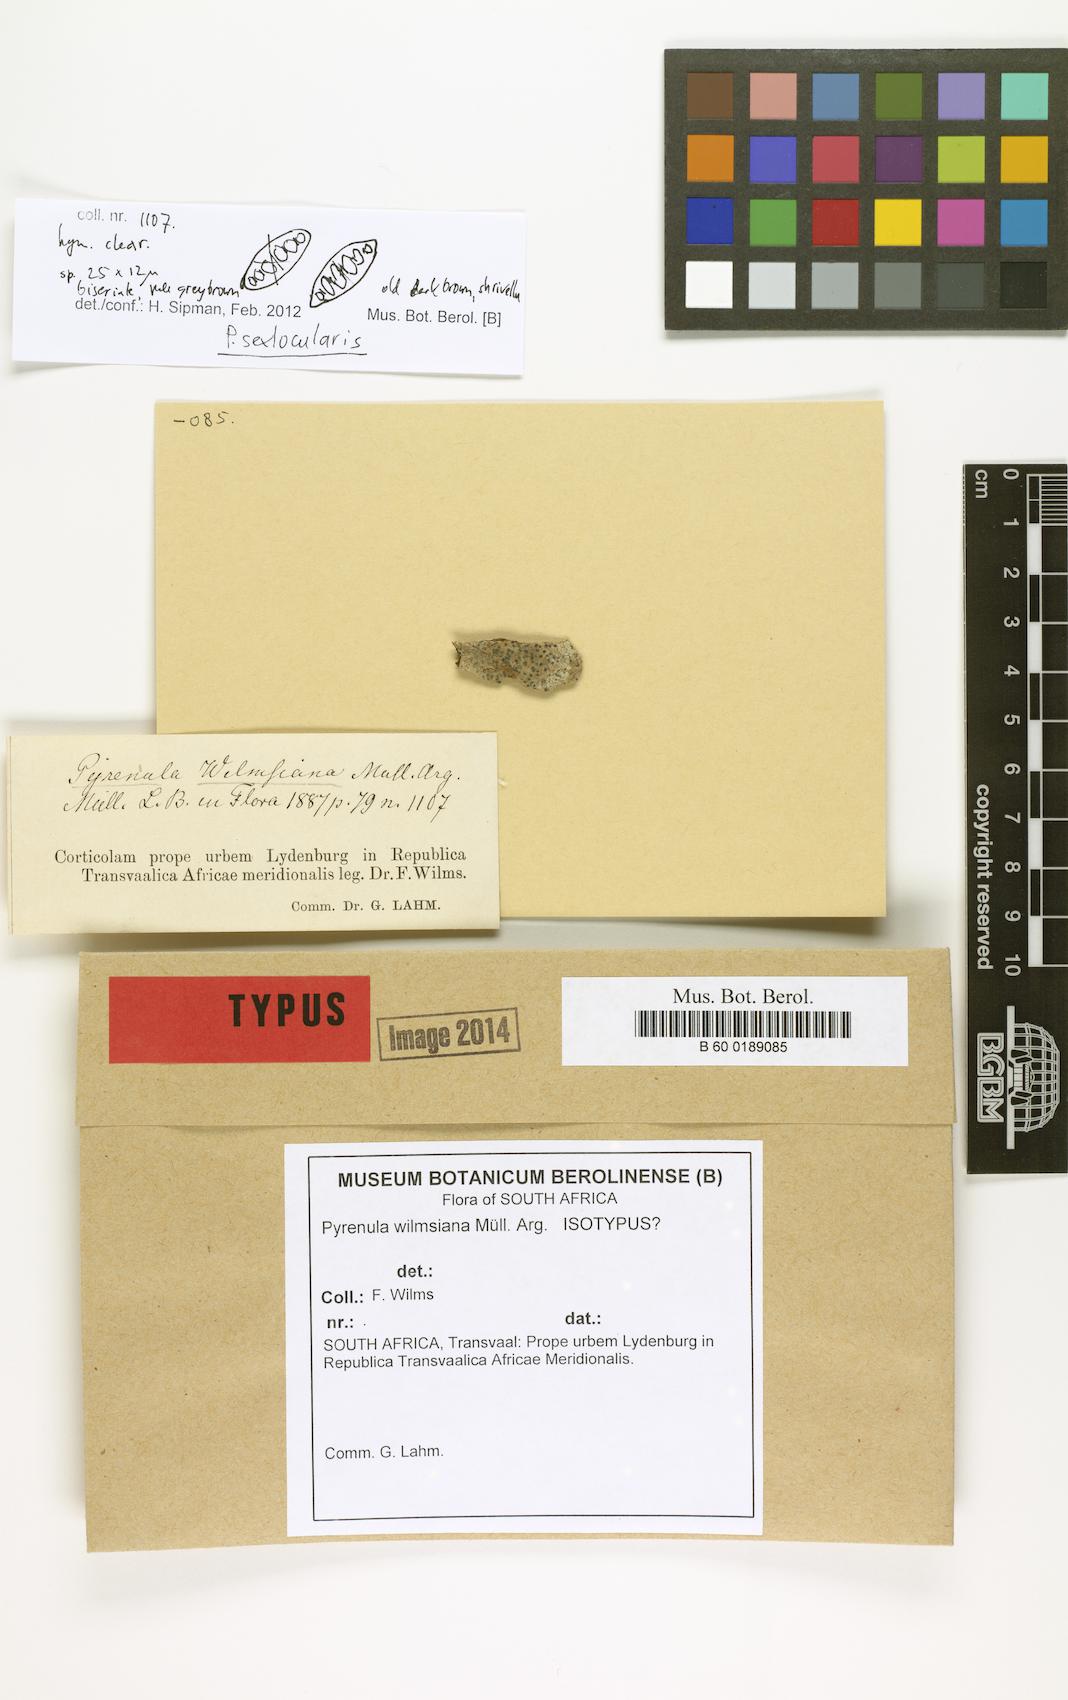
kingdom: Fungi
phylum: Ascomycota
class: Eurotiomycetes
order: Pyrenulales
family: Pyrenulaceae
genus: Pyrenula
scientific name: Pyrenula
